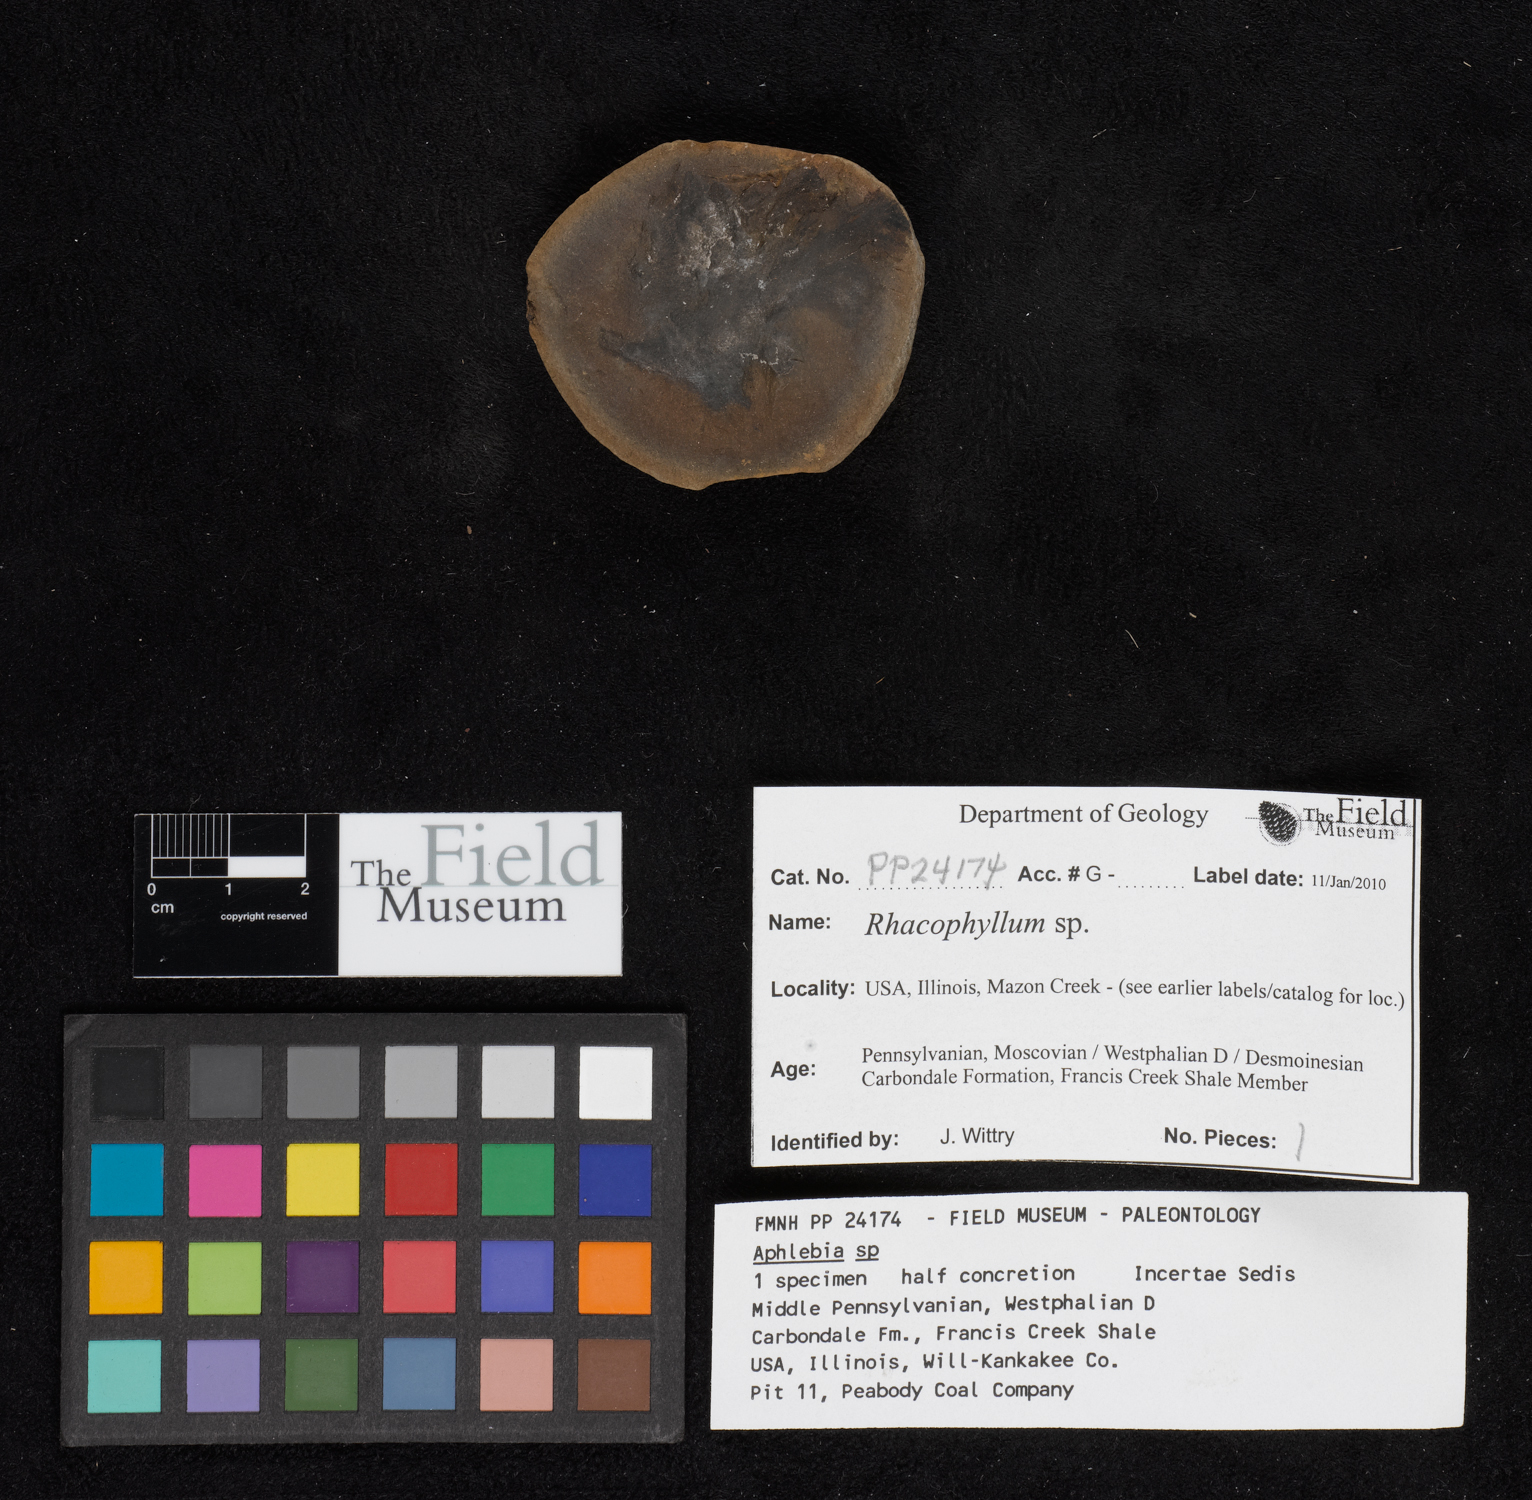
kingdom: Plantae
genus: Rhacophyllum
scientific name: Rhacophyllum
